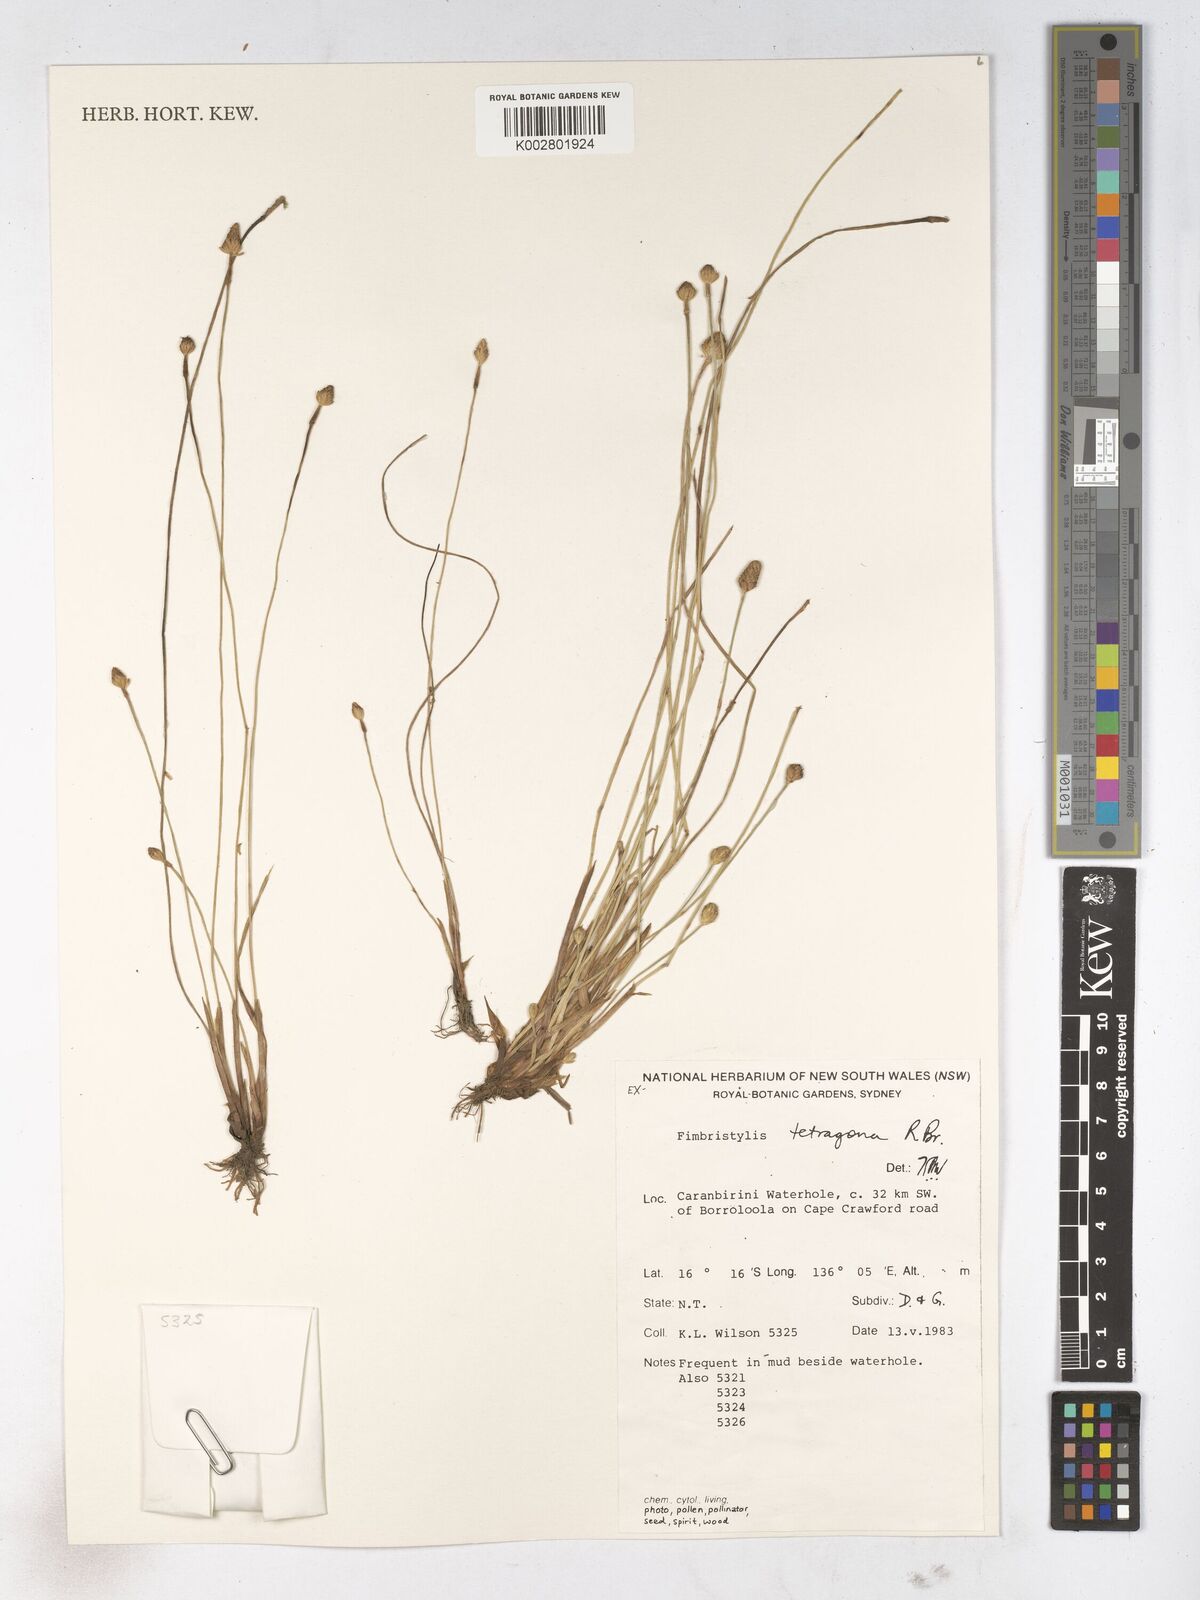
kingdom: Plantae
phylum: Tracheophyta
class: Liliopsida
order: Poales
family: Cyperaceae
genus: Fimbristylis
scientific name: Fimbristylis tetragona
